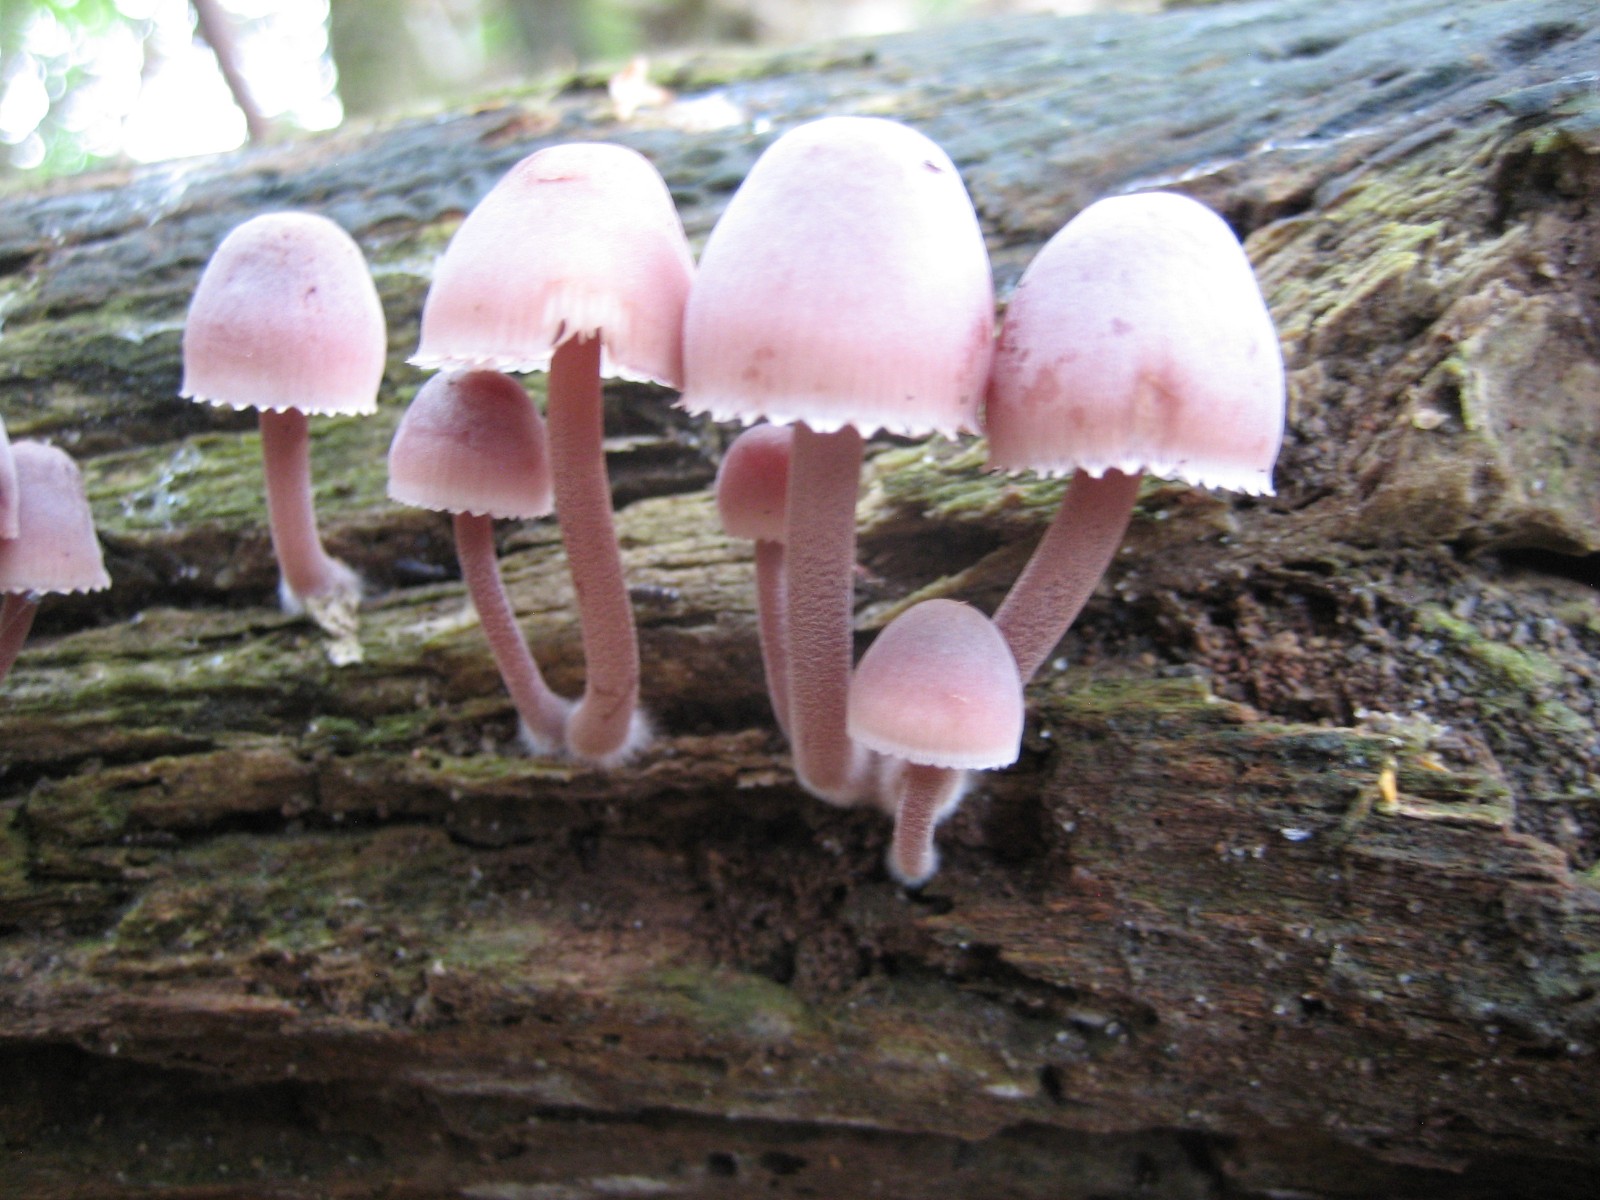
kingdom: Fungi
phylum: Basidiomycota
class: Agaricomycetes
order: Agaricales
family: Mycenaceae
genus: Mycena
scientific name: Mycena haematopus
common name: blødende huesvamp
